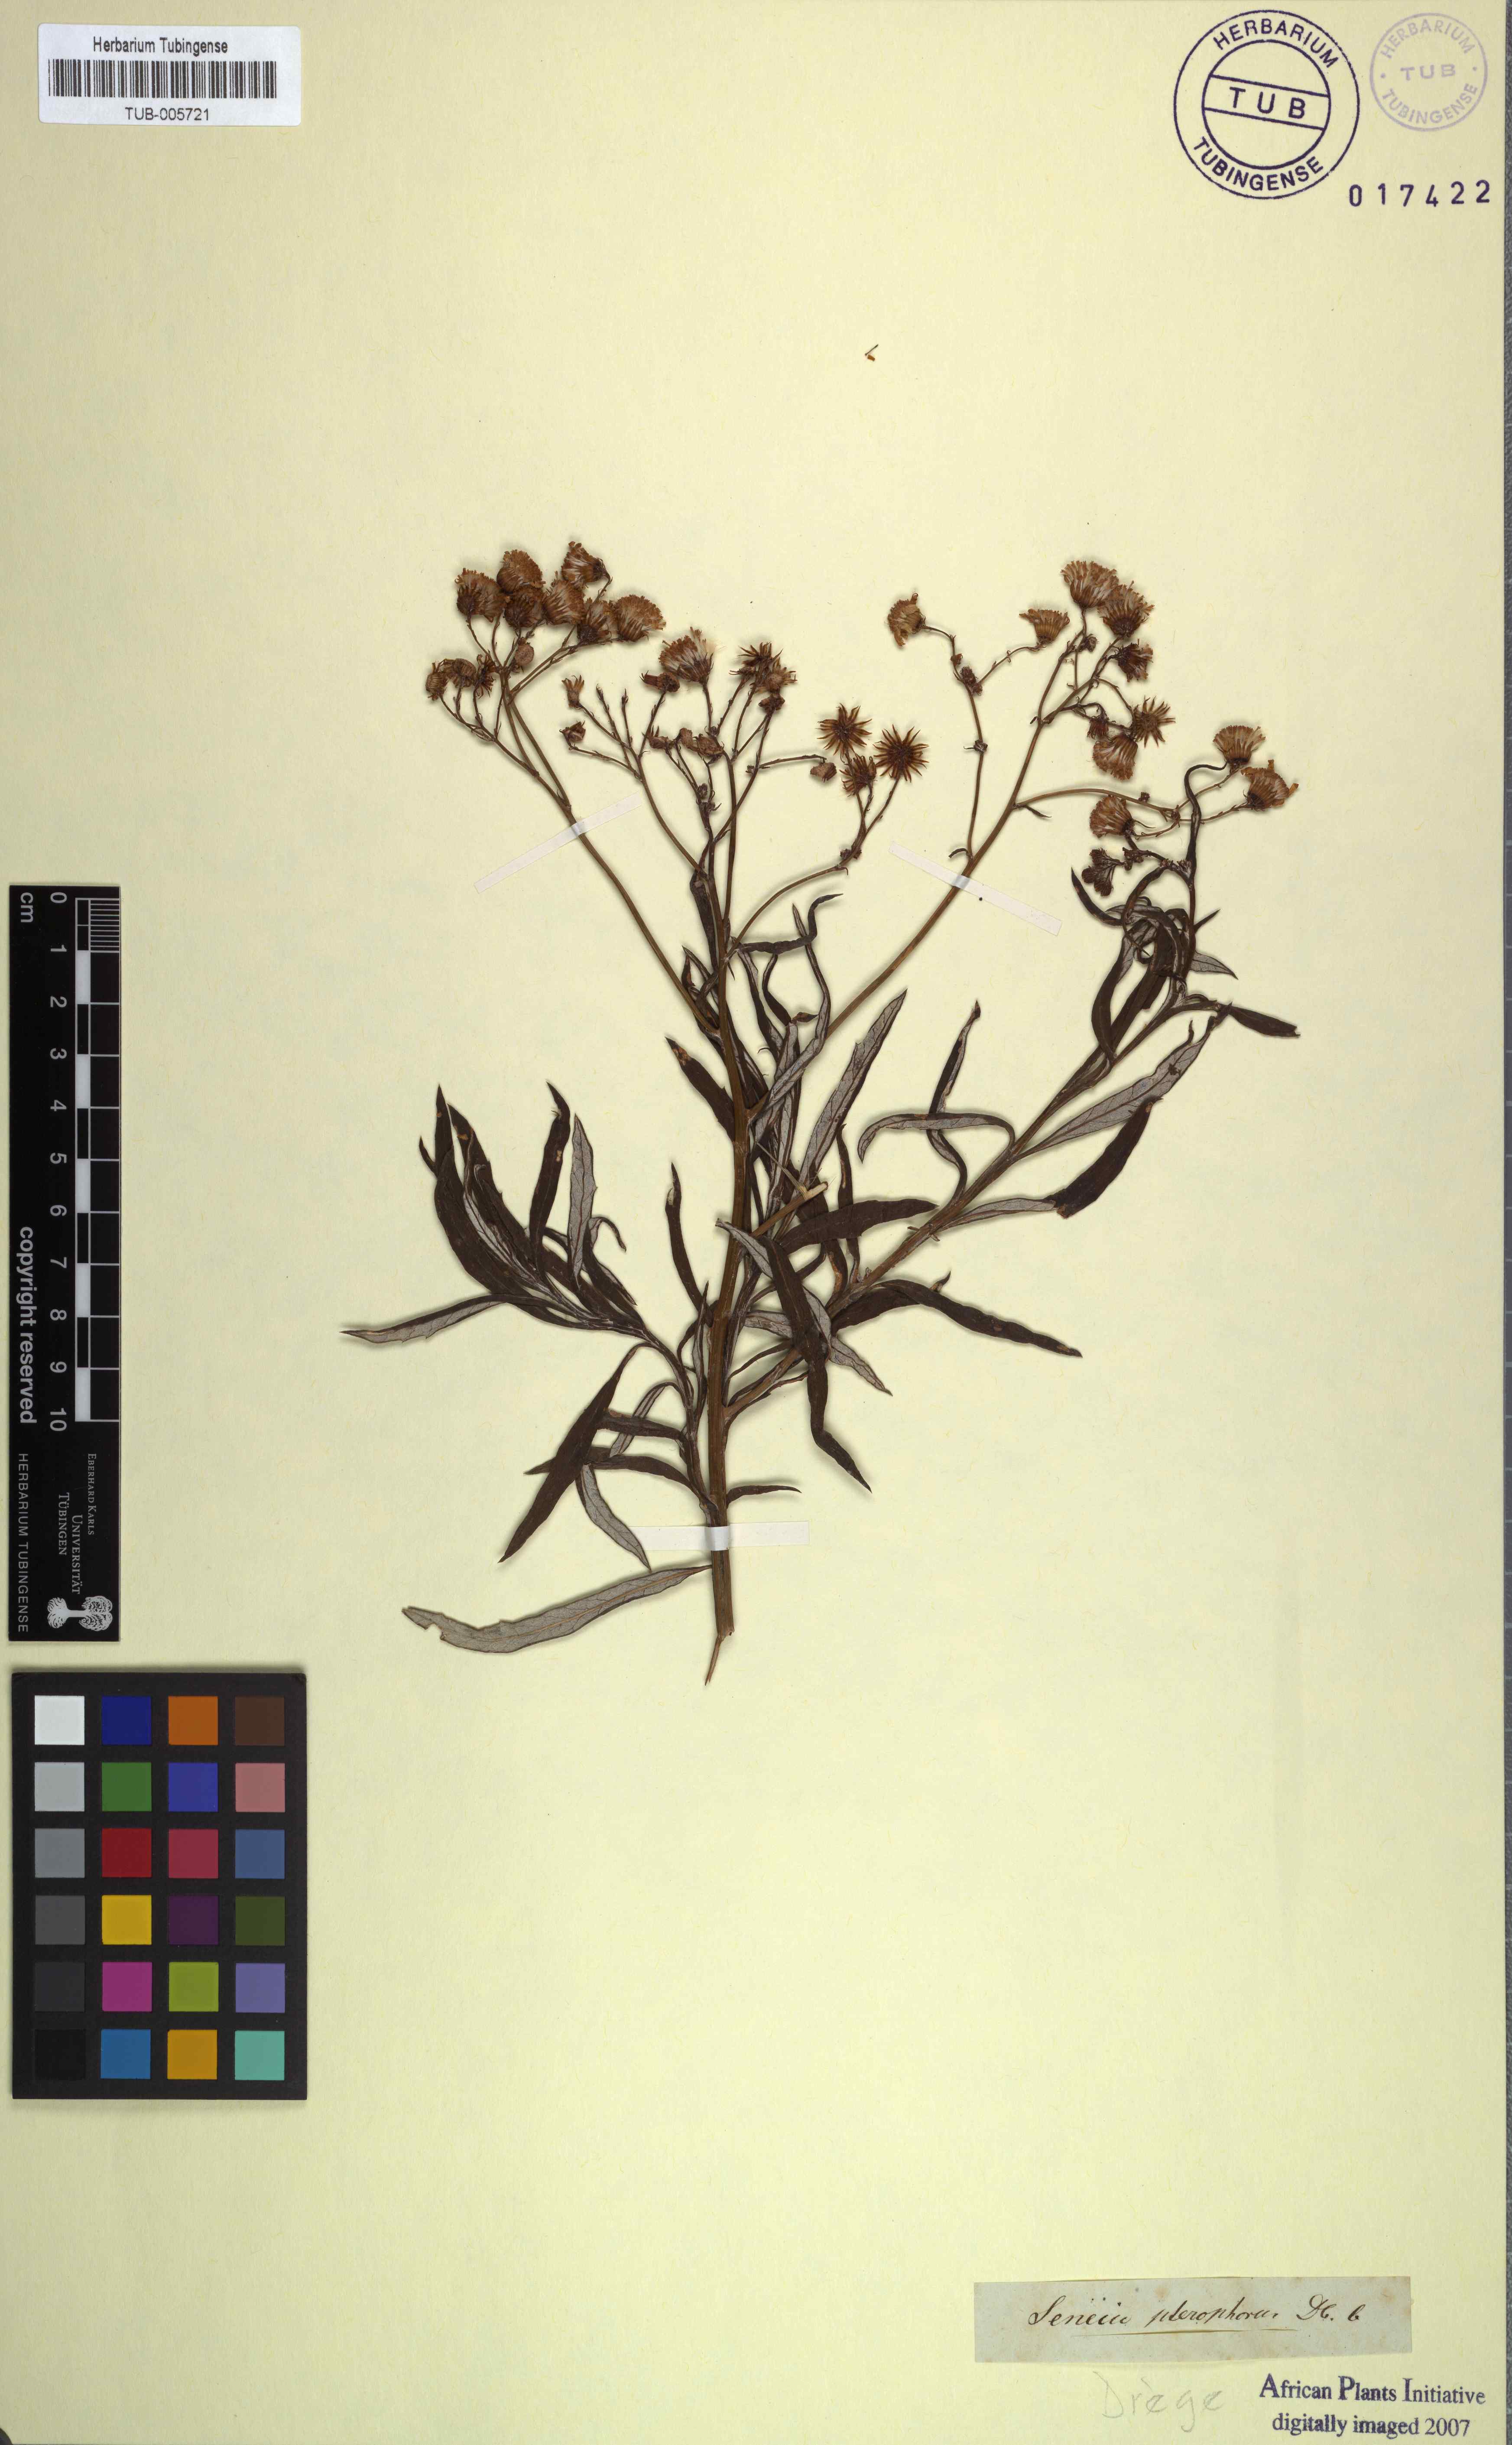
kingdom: Plantae
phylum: Tracheophyta
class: Magnoliopsida
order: Asterales
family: Asteraceae
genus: Senecio
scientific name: Senecio pterophorus
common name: Shoddy ragwort
